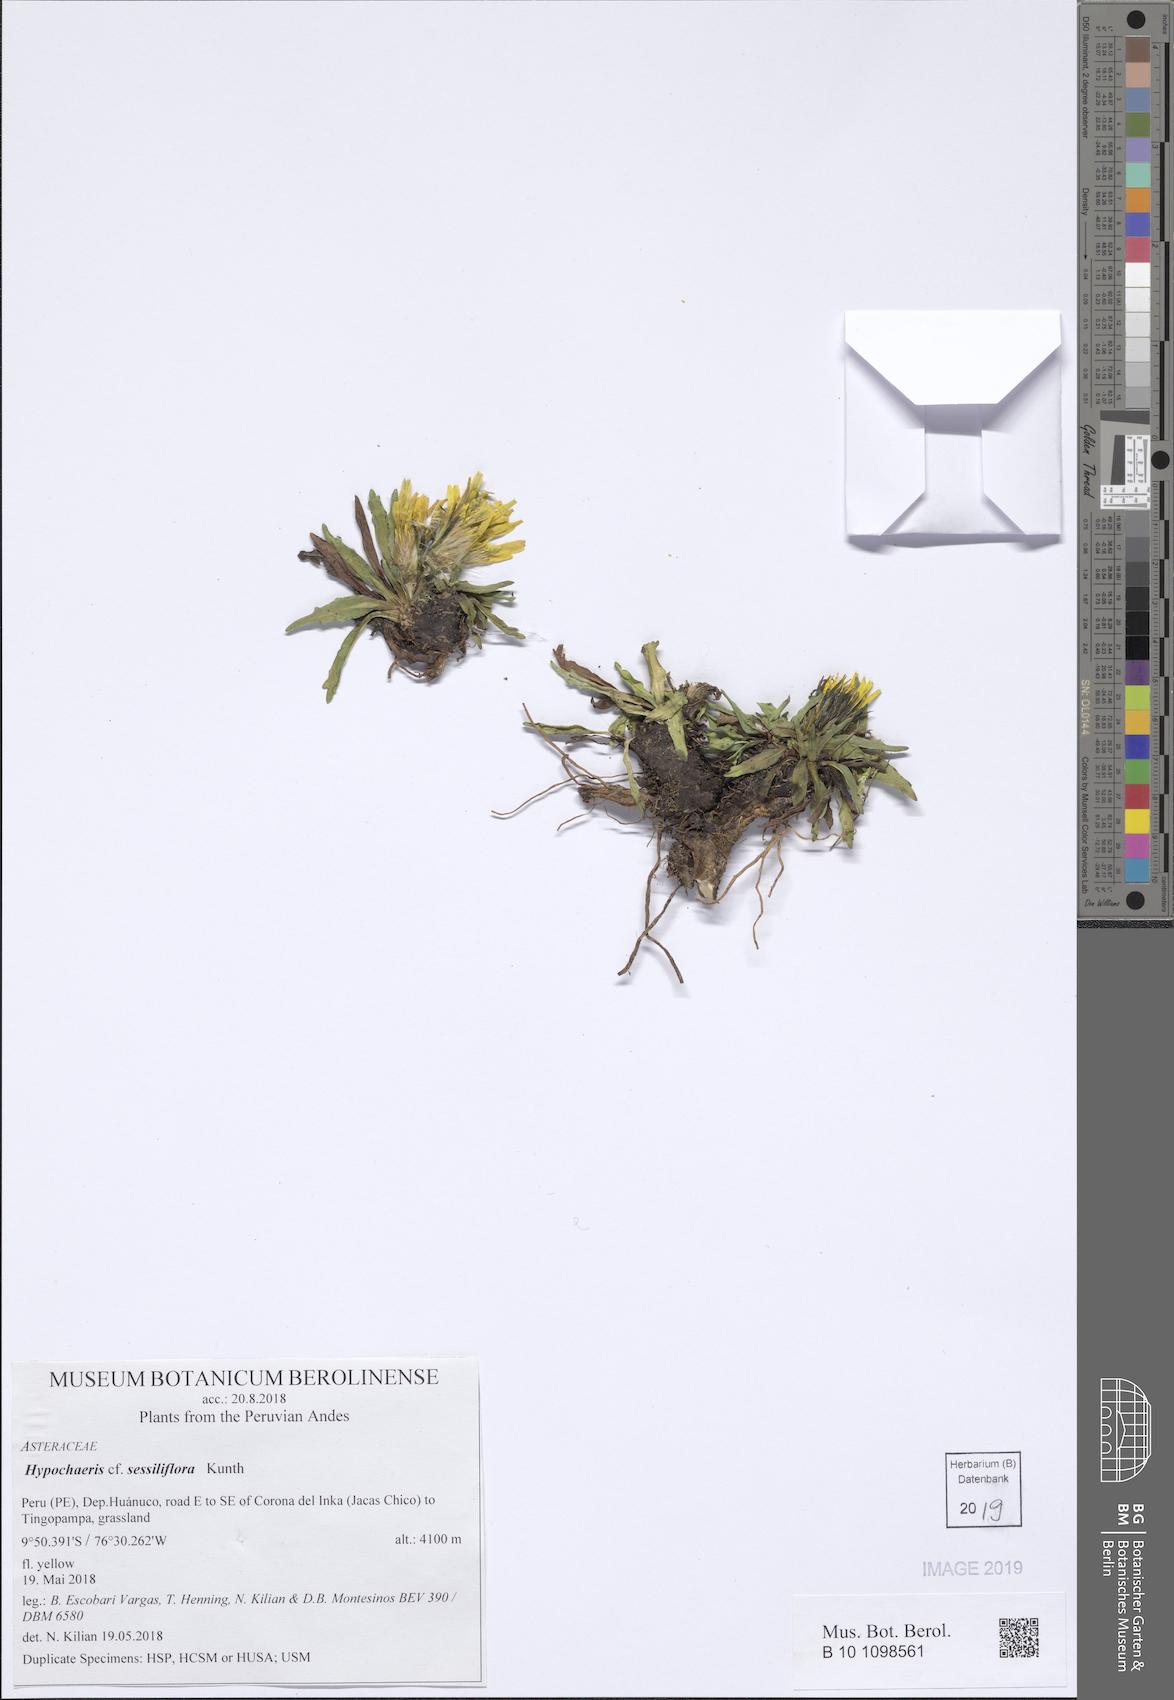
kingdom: Plantae
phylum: Tracheophyta
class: Magnoliopsida
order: Asterales
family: Asteraceae
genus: Hypochaeris
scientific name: Hypochaeris sessiliflora
